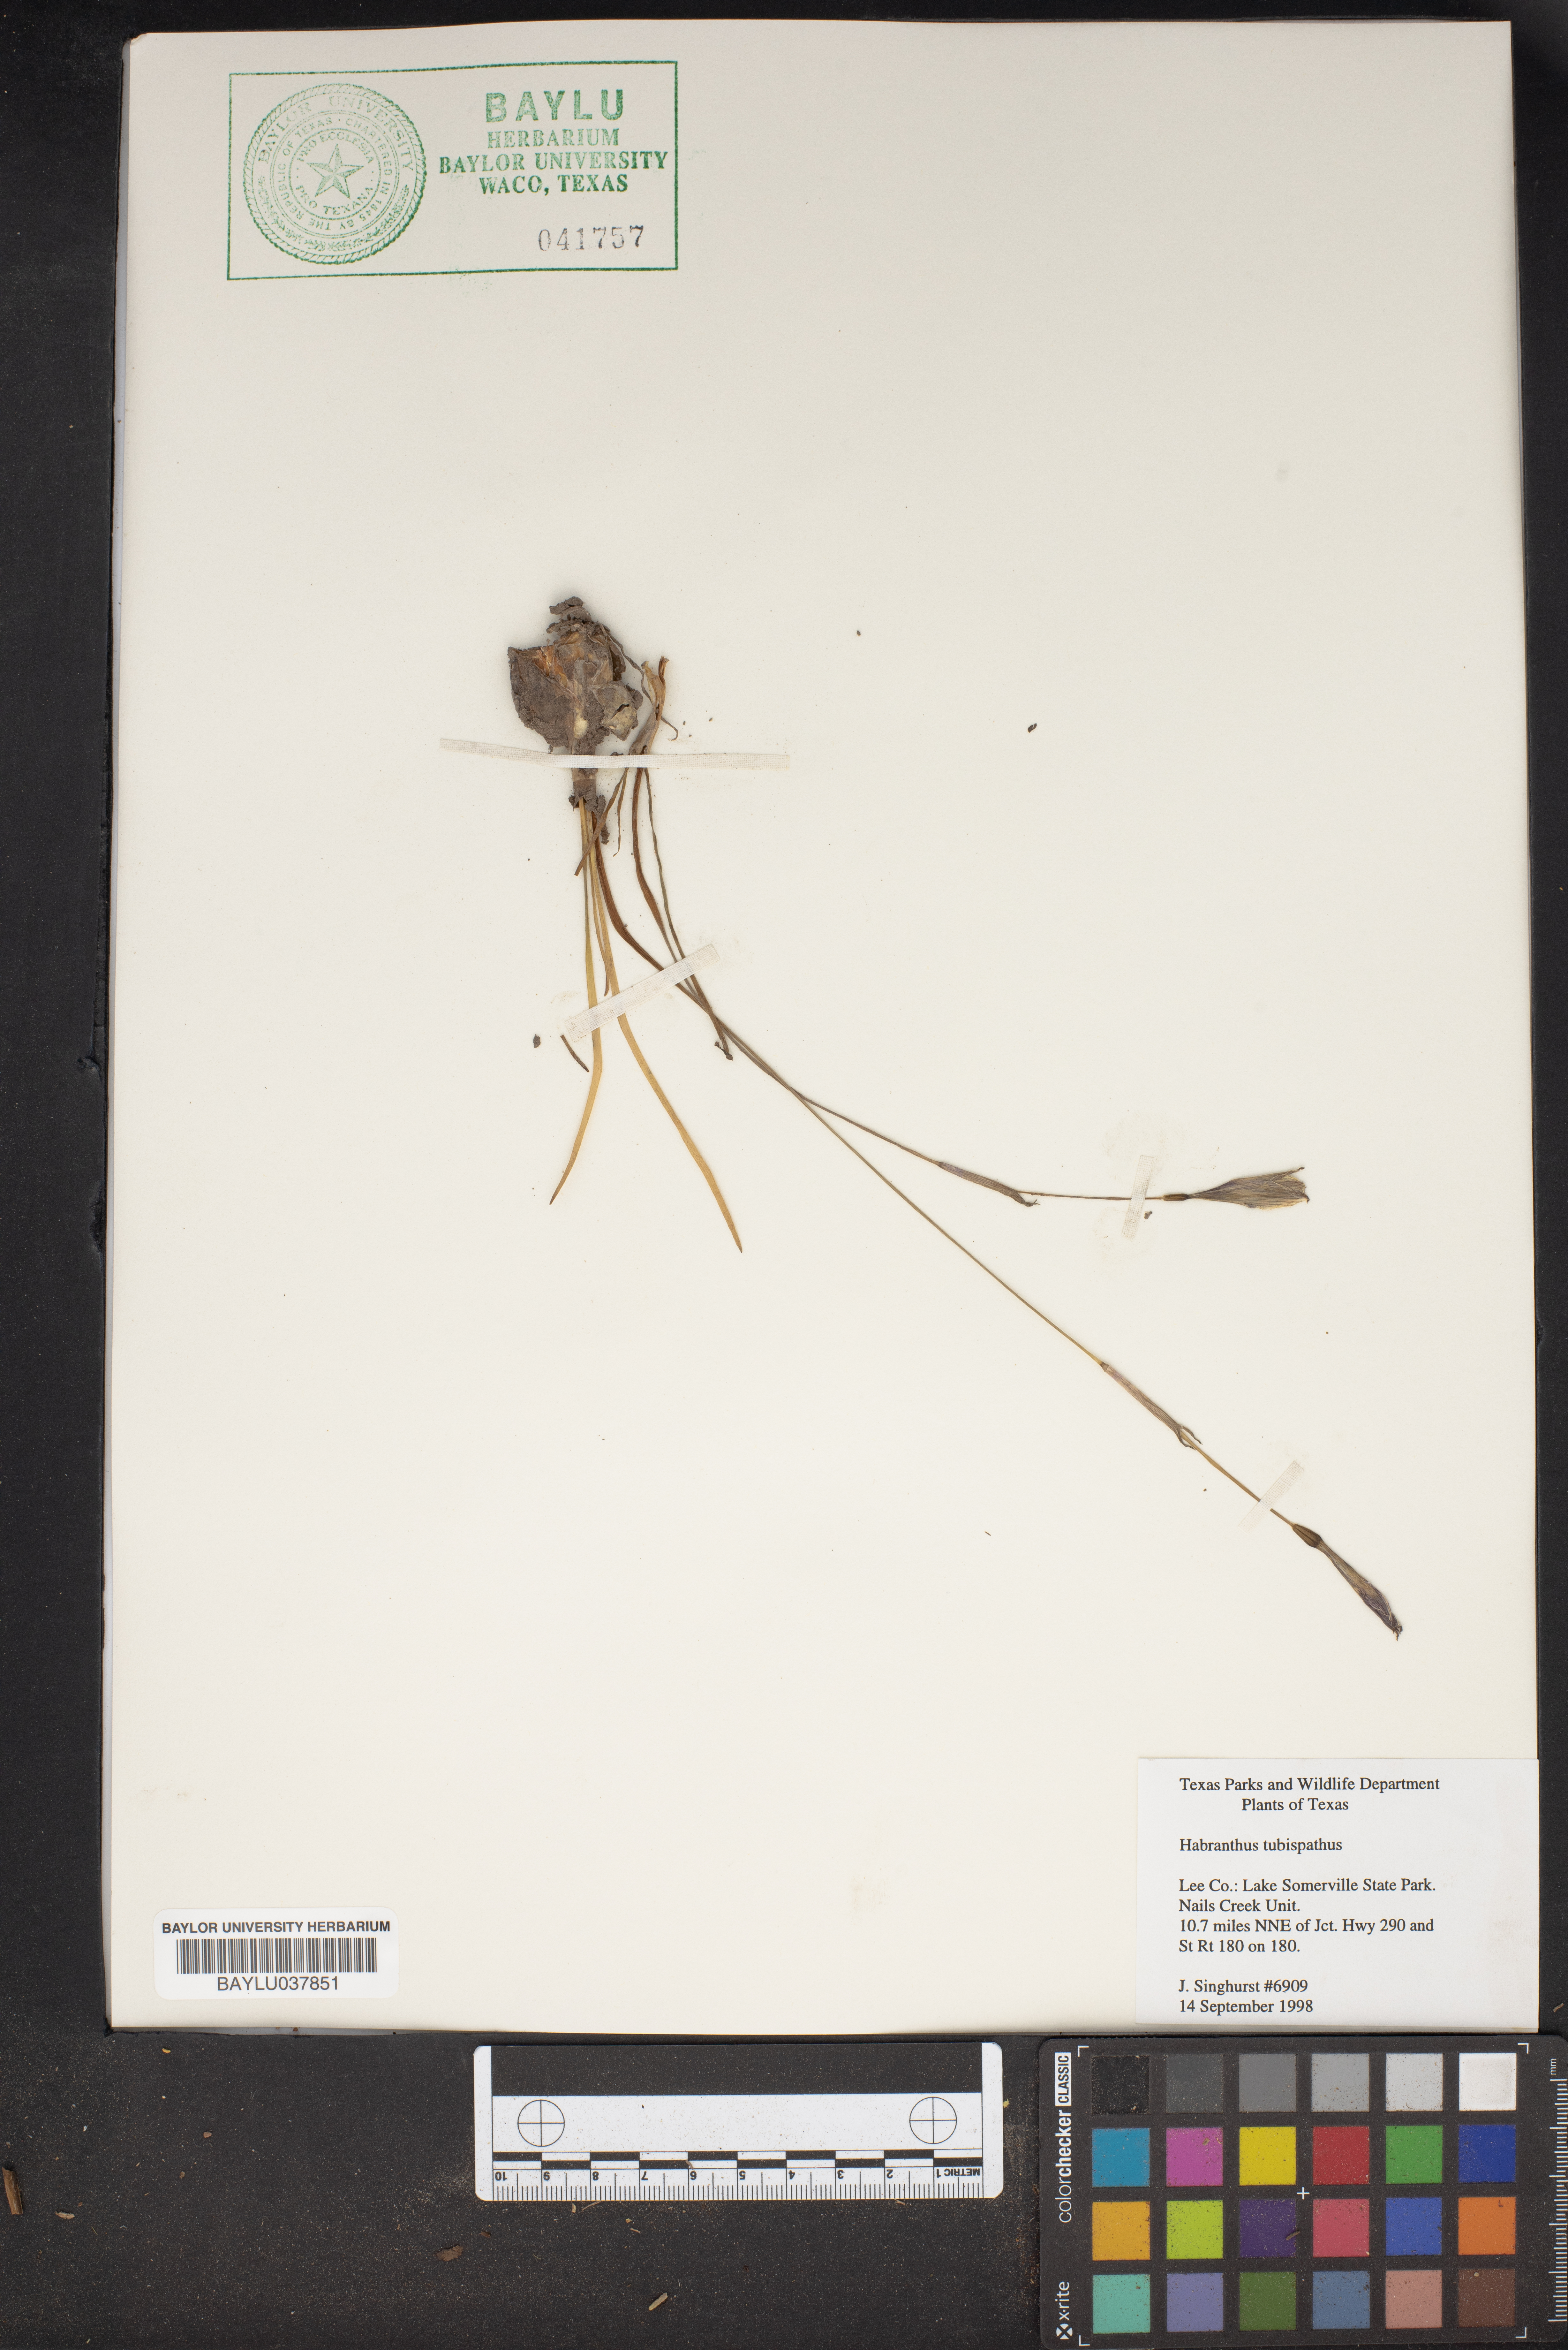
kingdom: Plantae
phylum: Tracheophyta
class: Liliopsida
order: Asparagales
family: Amaryllidaceae
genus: Zephyranthes
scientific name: Zephyranthes tubispatha
